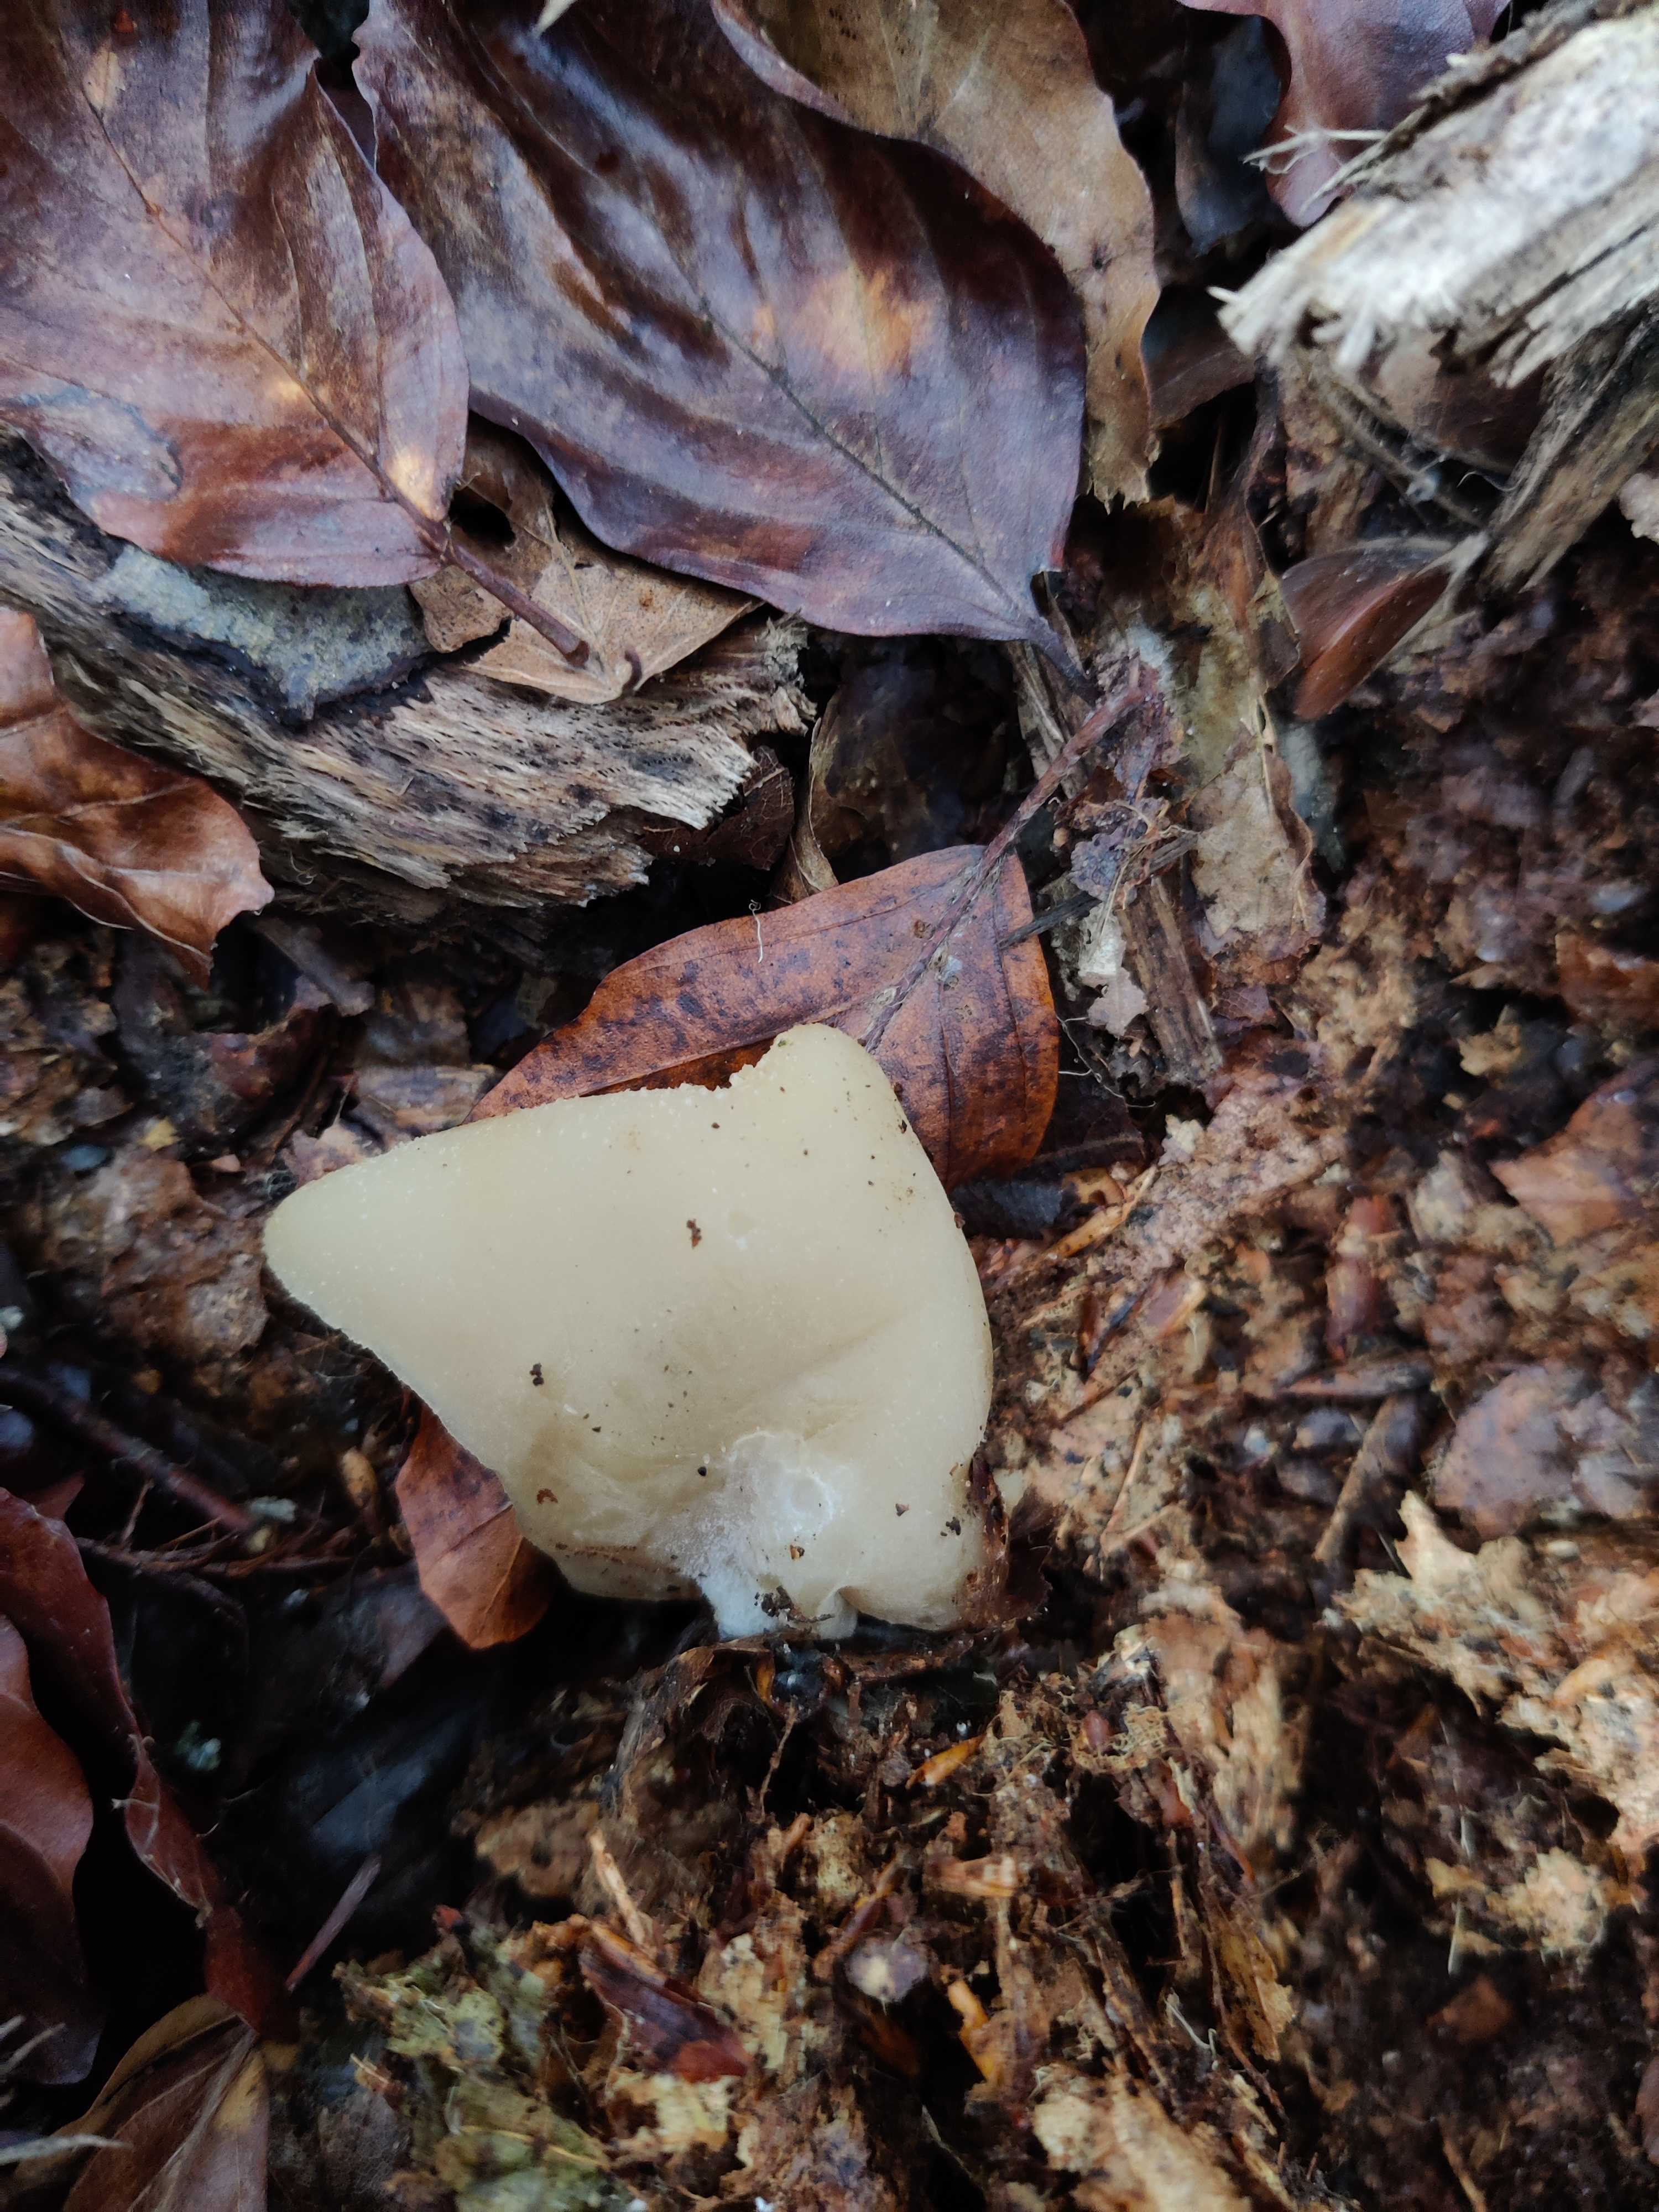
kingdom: Fungi
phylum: Ascomycota
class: Pezizomycetes
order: Pezizales
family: Pezizaceae
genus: Peziza
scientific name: Peziza
